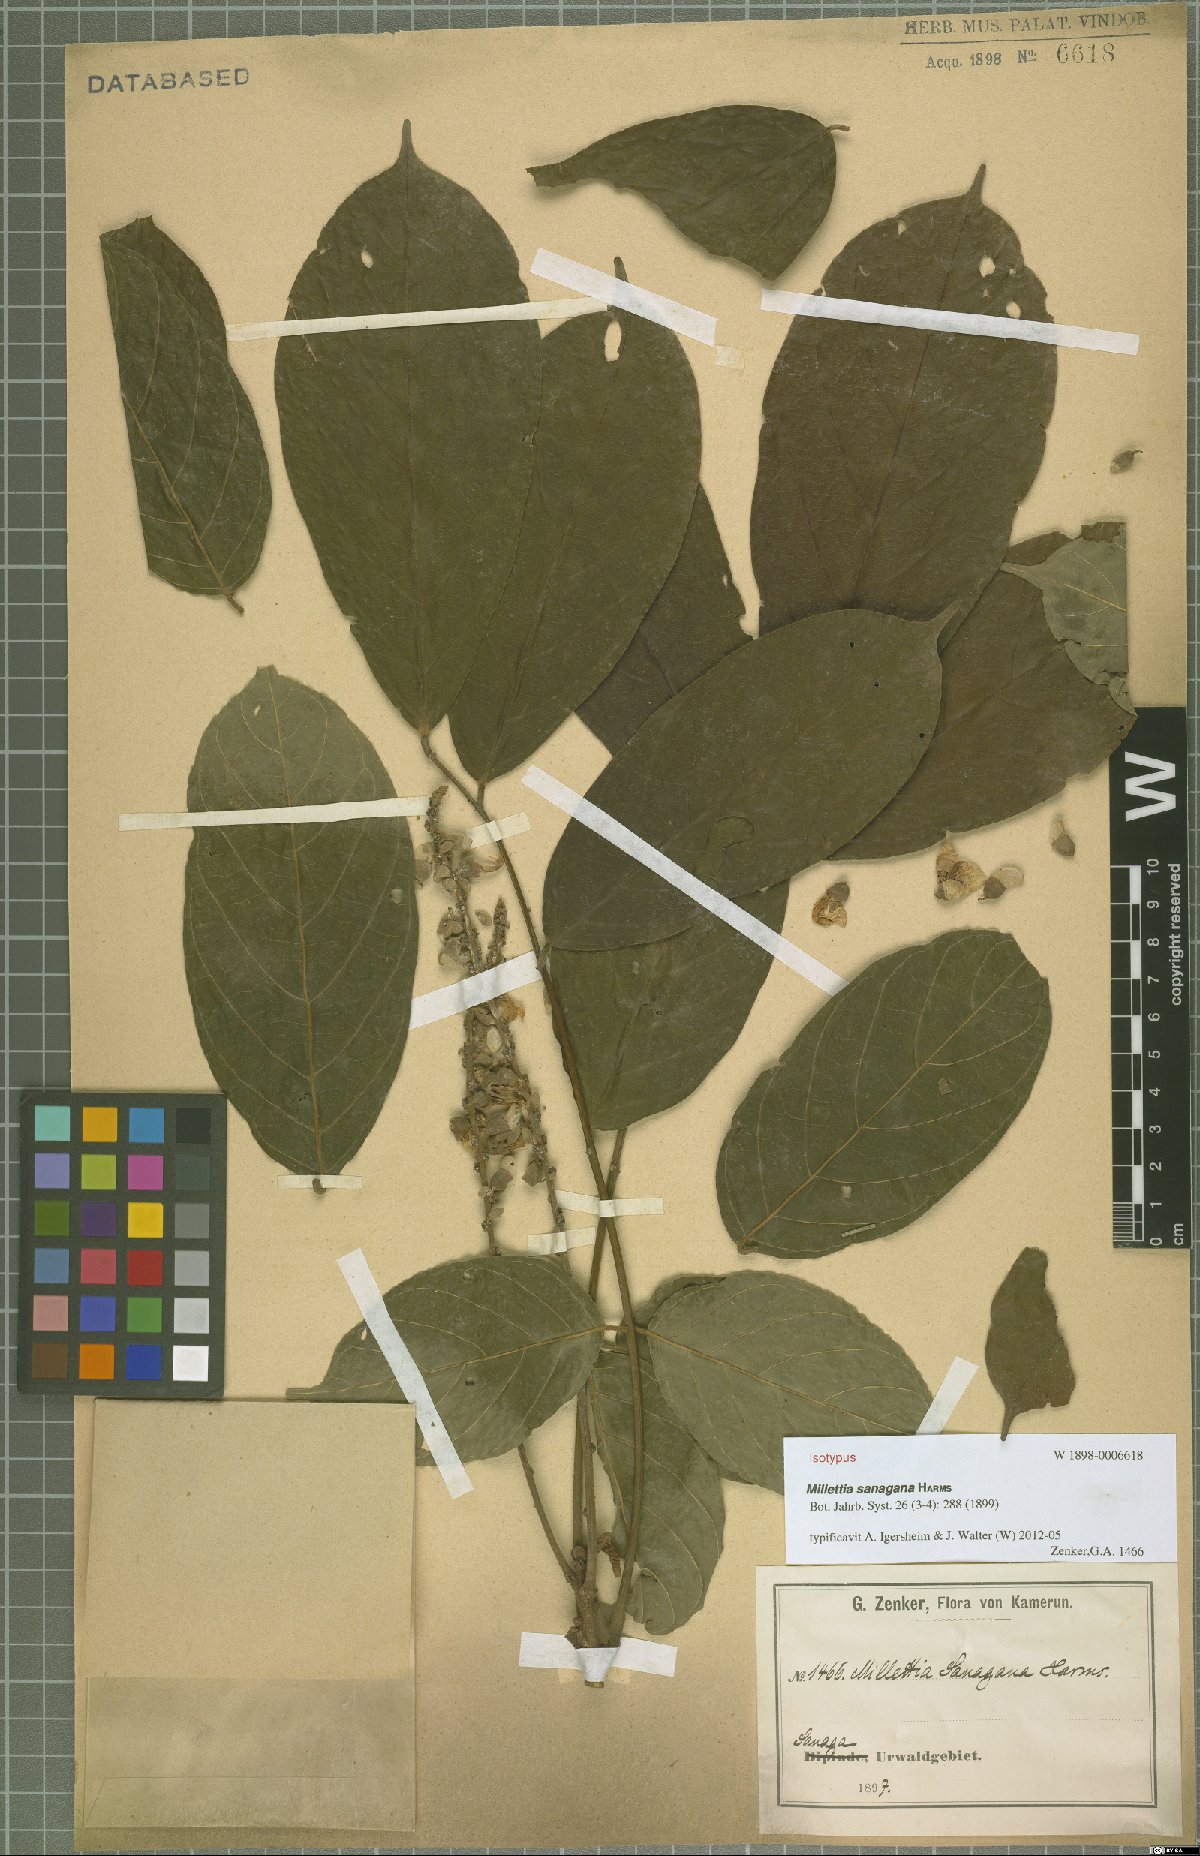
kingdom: Plantae
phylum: Tracheophyta
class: Magnoliopsida
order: Fabales
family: Fabaceae
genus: Millettia
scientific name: Millettia sanagana
